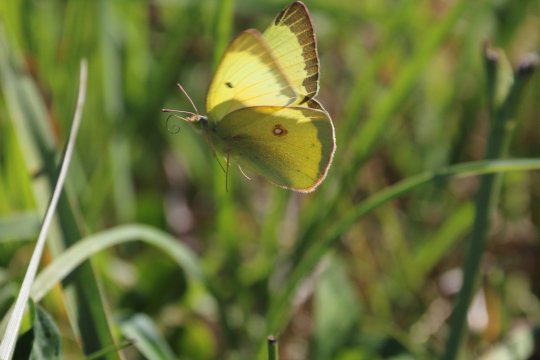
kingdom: Animalia
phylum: Arthropoda
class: Insecta
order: Lepidoptera
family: Pieridae
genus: Colias
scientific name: Colias philodice
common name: Clouded Sulphur
